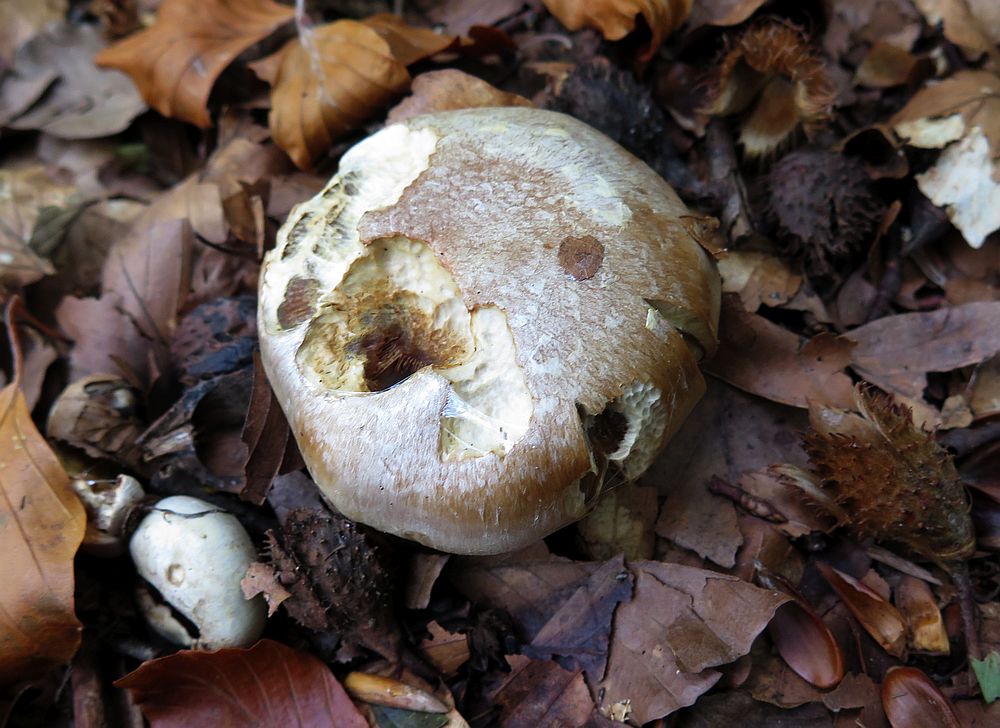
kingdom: Fungi
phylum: Basidiomycota
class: Agaricomycetes
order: Agaricales
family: Cortinariaceae
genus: Cortinarius
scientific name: Cortinarius foetens
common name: stribet slørhat
